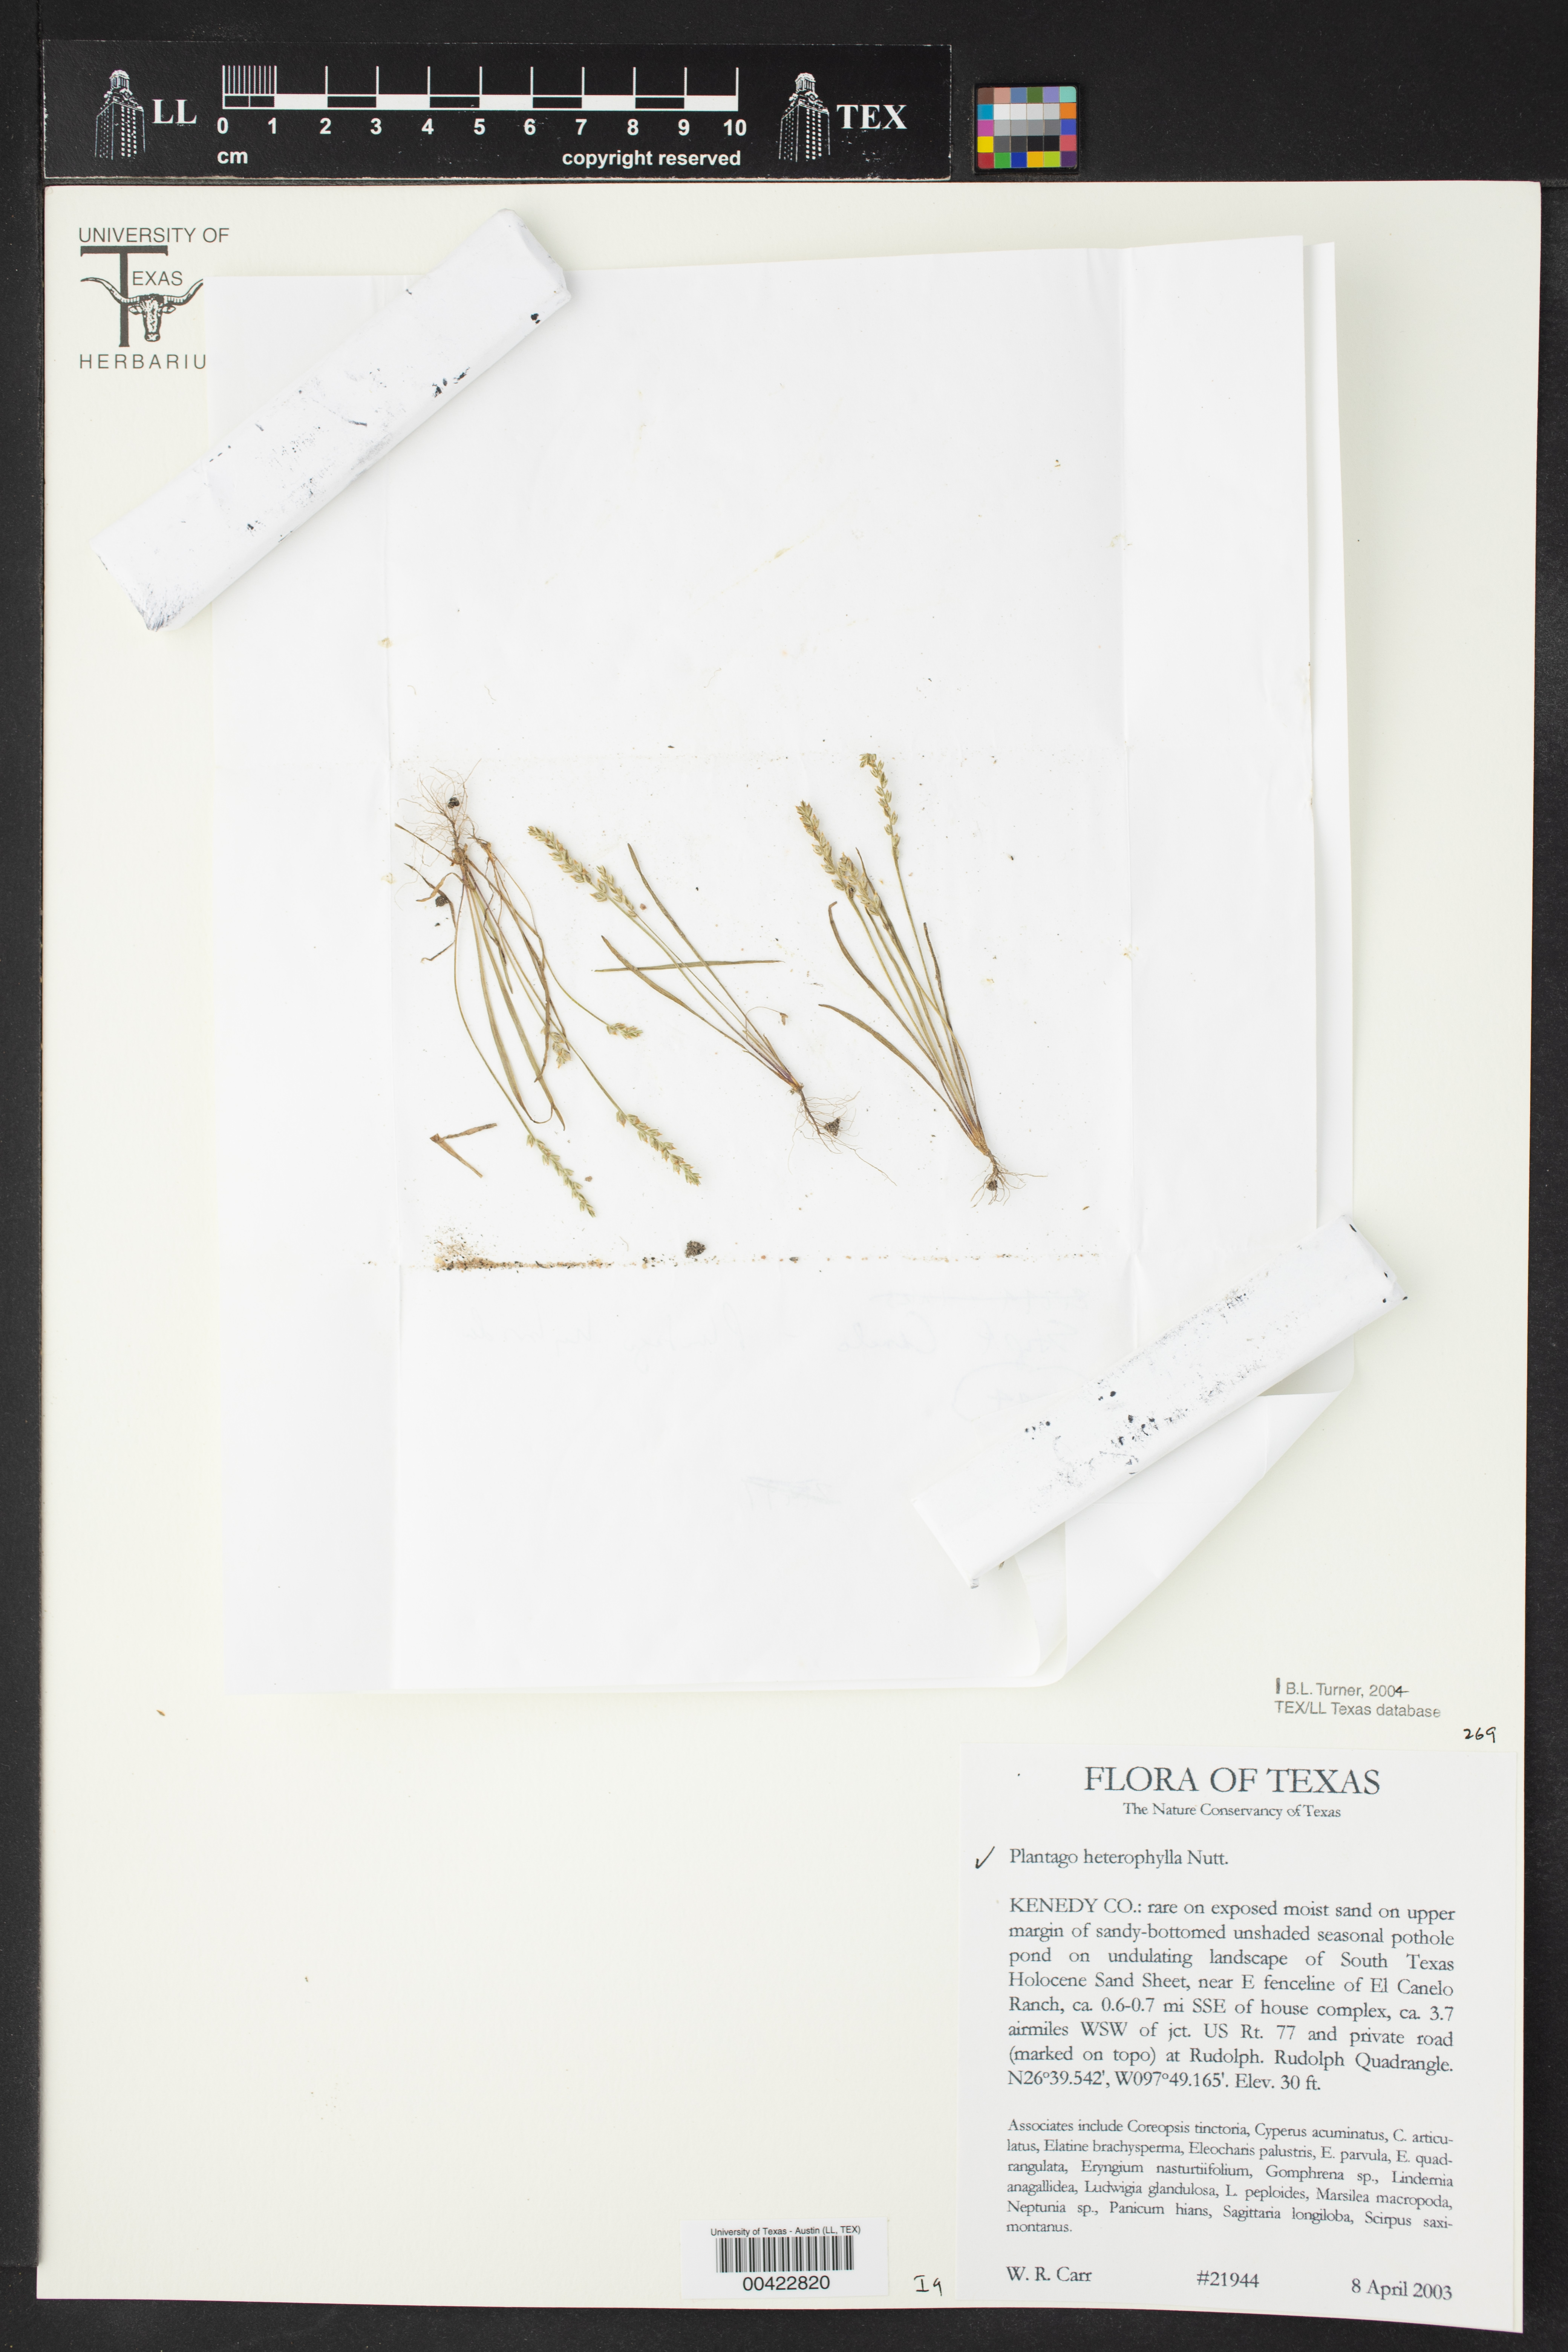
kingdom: Plantae
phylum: Tracheophyta
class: Magnoliopsida
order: Lamiales
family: Plantaginaceae
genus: Plantago
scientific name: Plantago heterophylla
